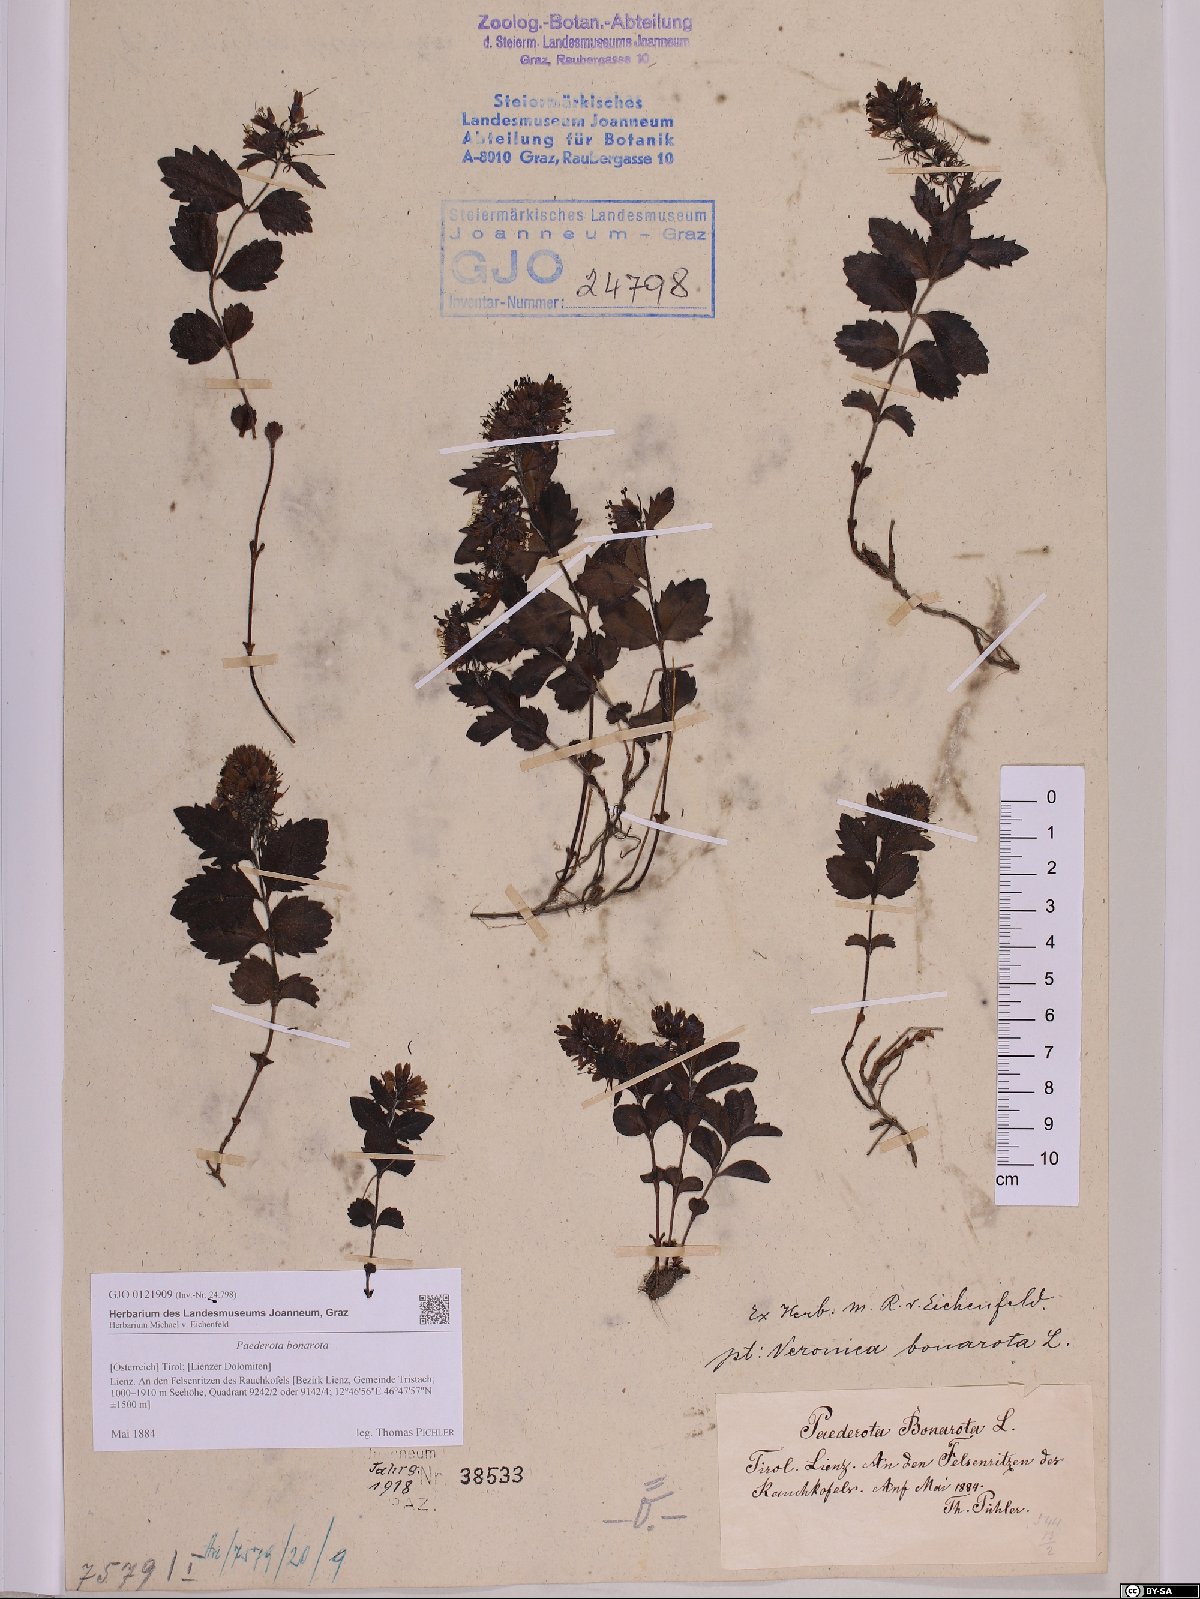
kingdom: Plantae
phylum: Tracheophyta
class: Magnoliopsida
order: Lamiales
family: Plantaginaceae
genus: Paederota
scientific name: Paederota bonarota
